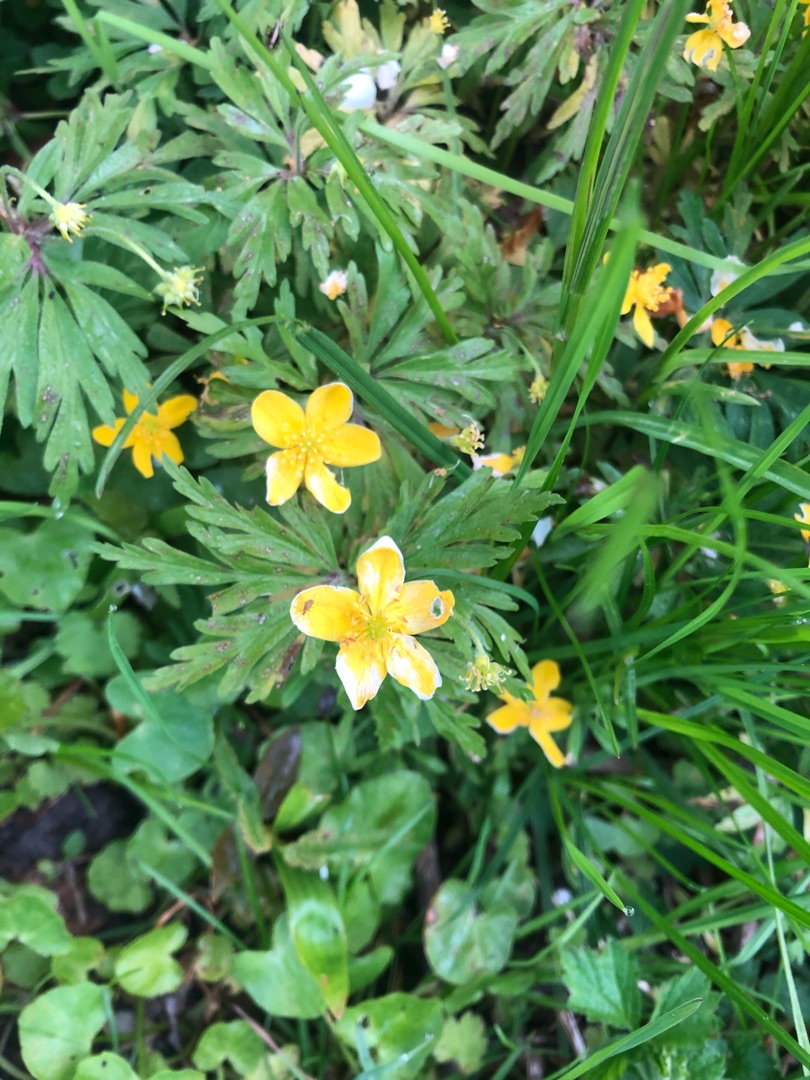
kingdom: Plantae
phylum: Tracheophyta
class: Magnoliopsida
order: Ranunculales
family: Ranunculaceae
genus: Anemone
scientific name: Anemone ranunculoides
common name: Gul anemone
